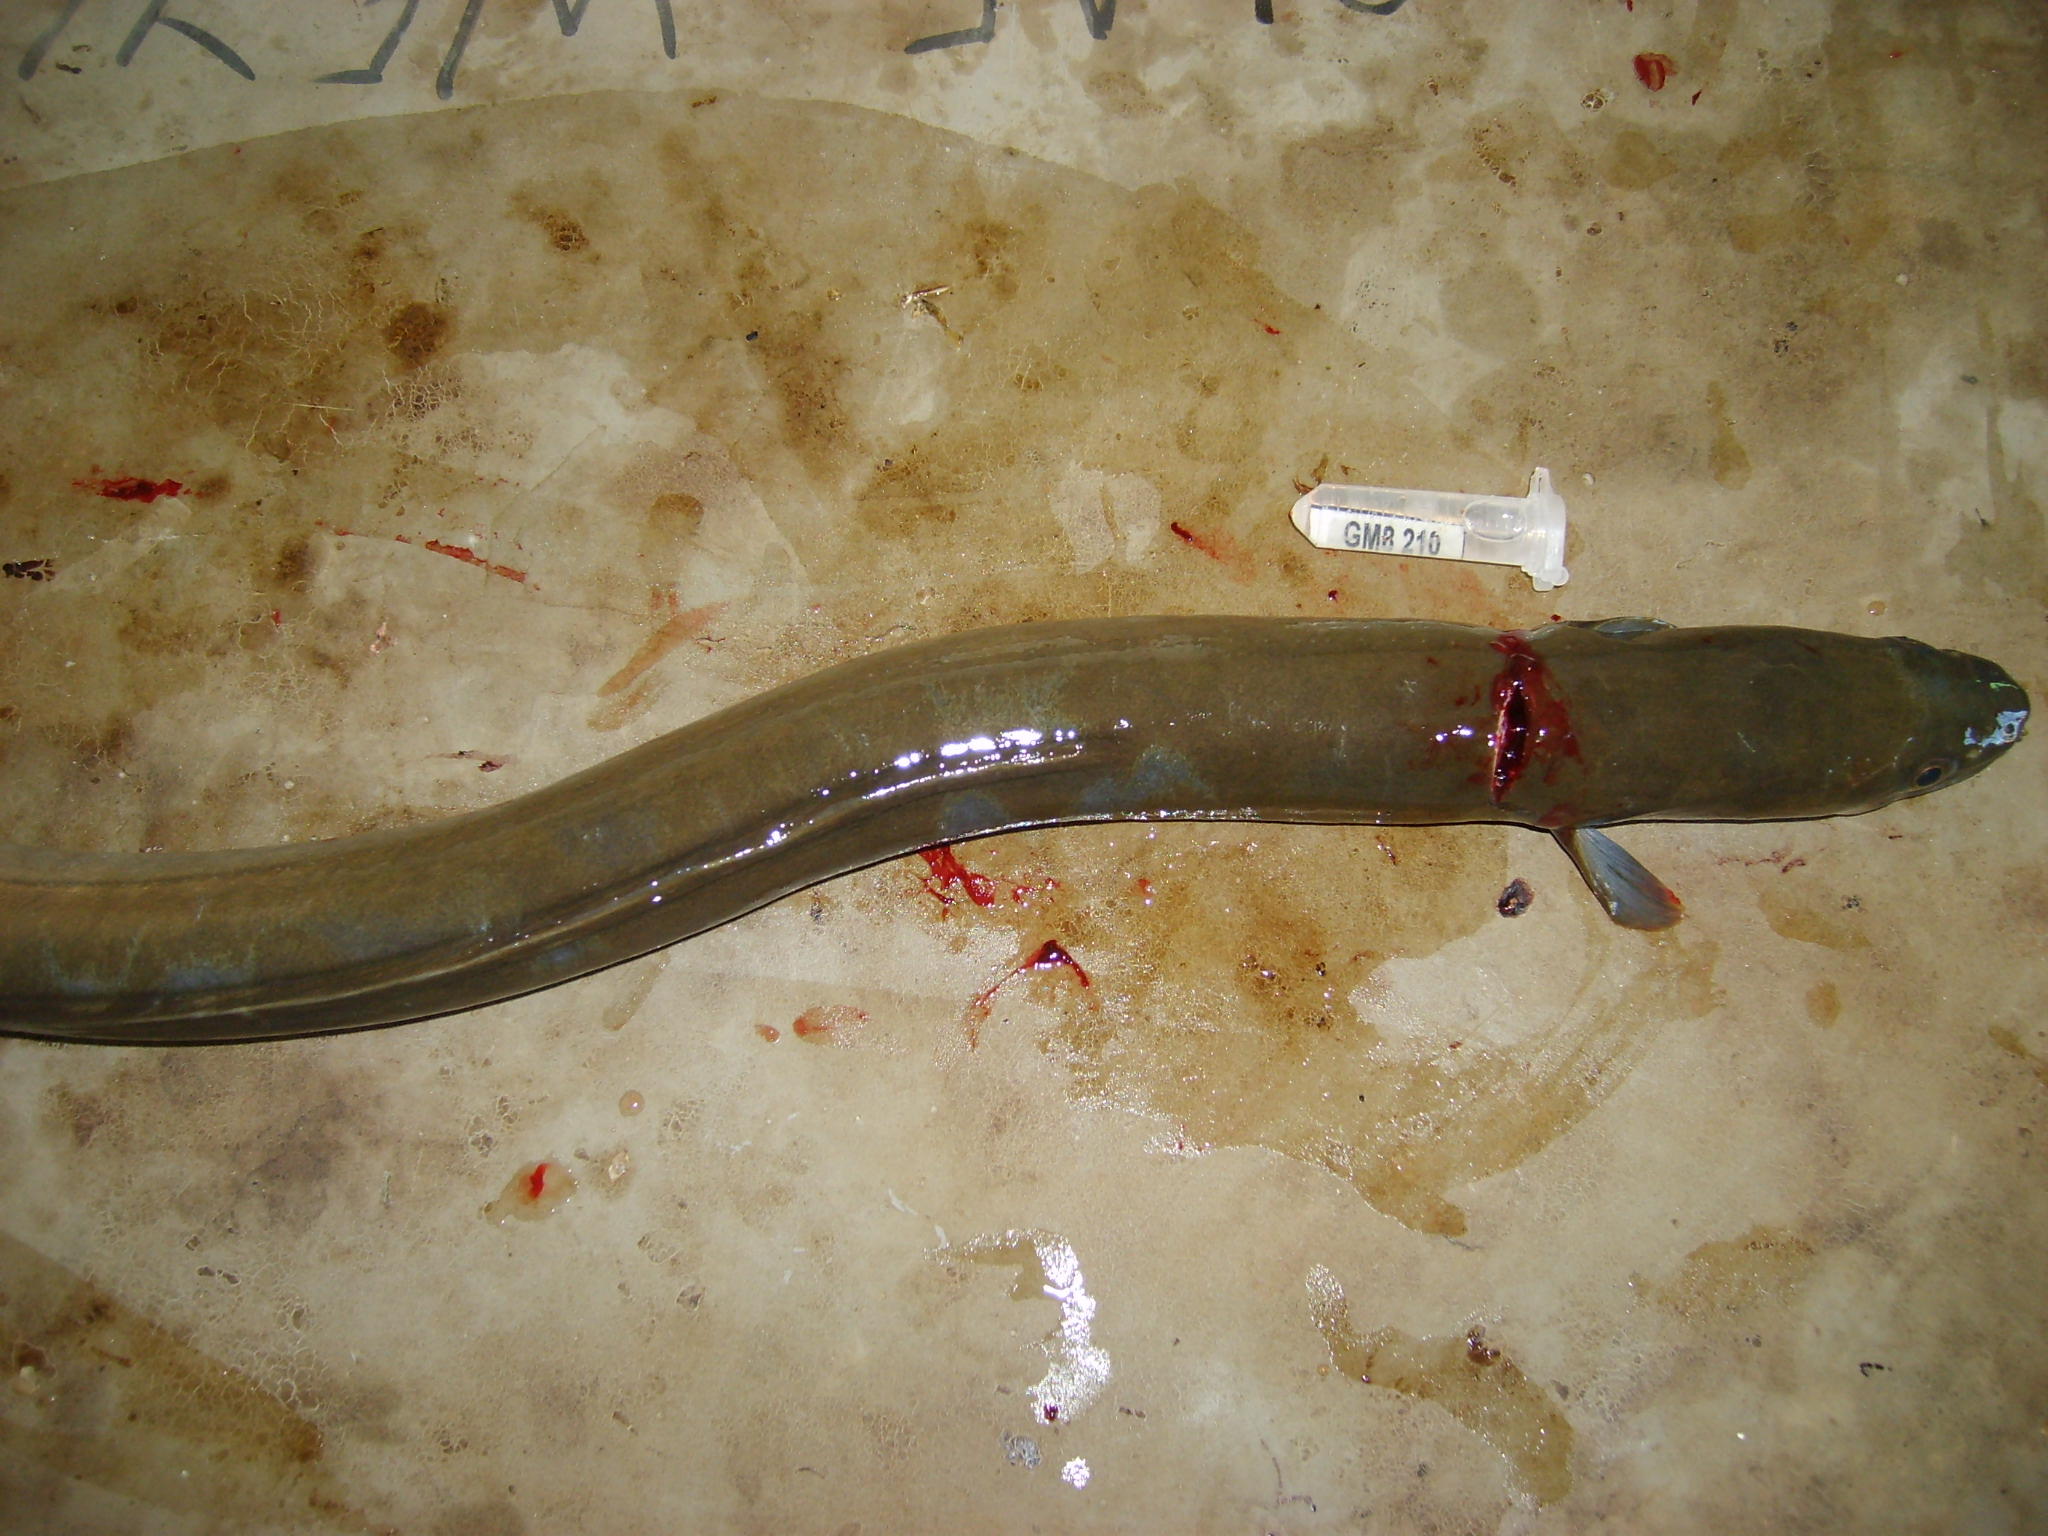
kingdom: Animalia
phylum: Chordata
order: Anguilliformes
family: Anguillidae
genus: Anguilla
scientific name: Anguilla mossambica
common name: African longfin eel
